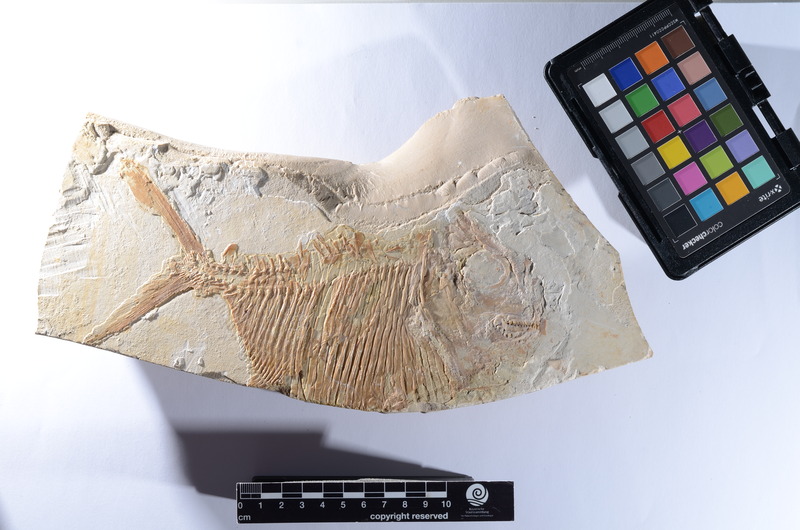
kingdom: Animalia
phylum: Chordata
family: Gyrodontidae
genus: Gyrodus
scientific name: Gyrodus hexagonus
